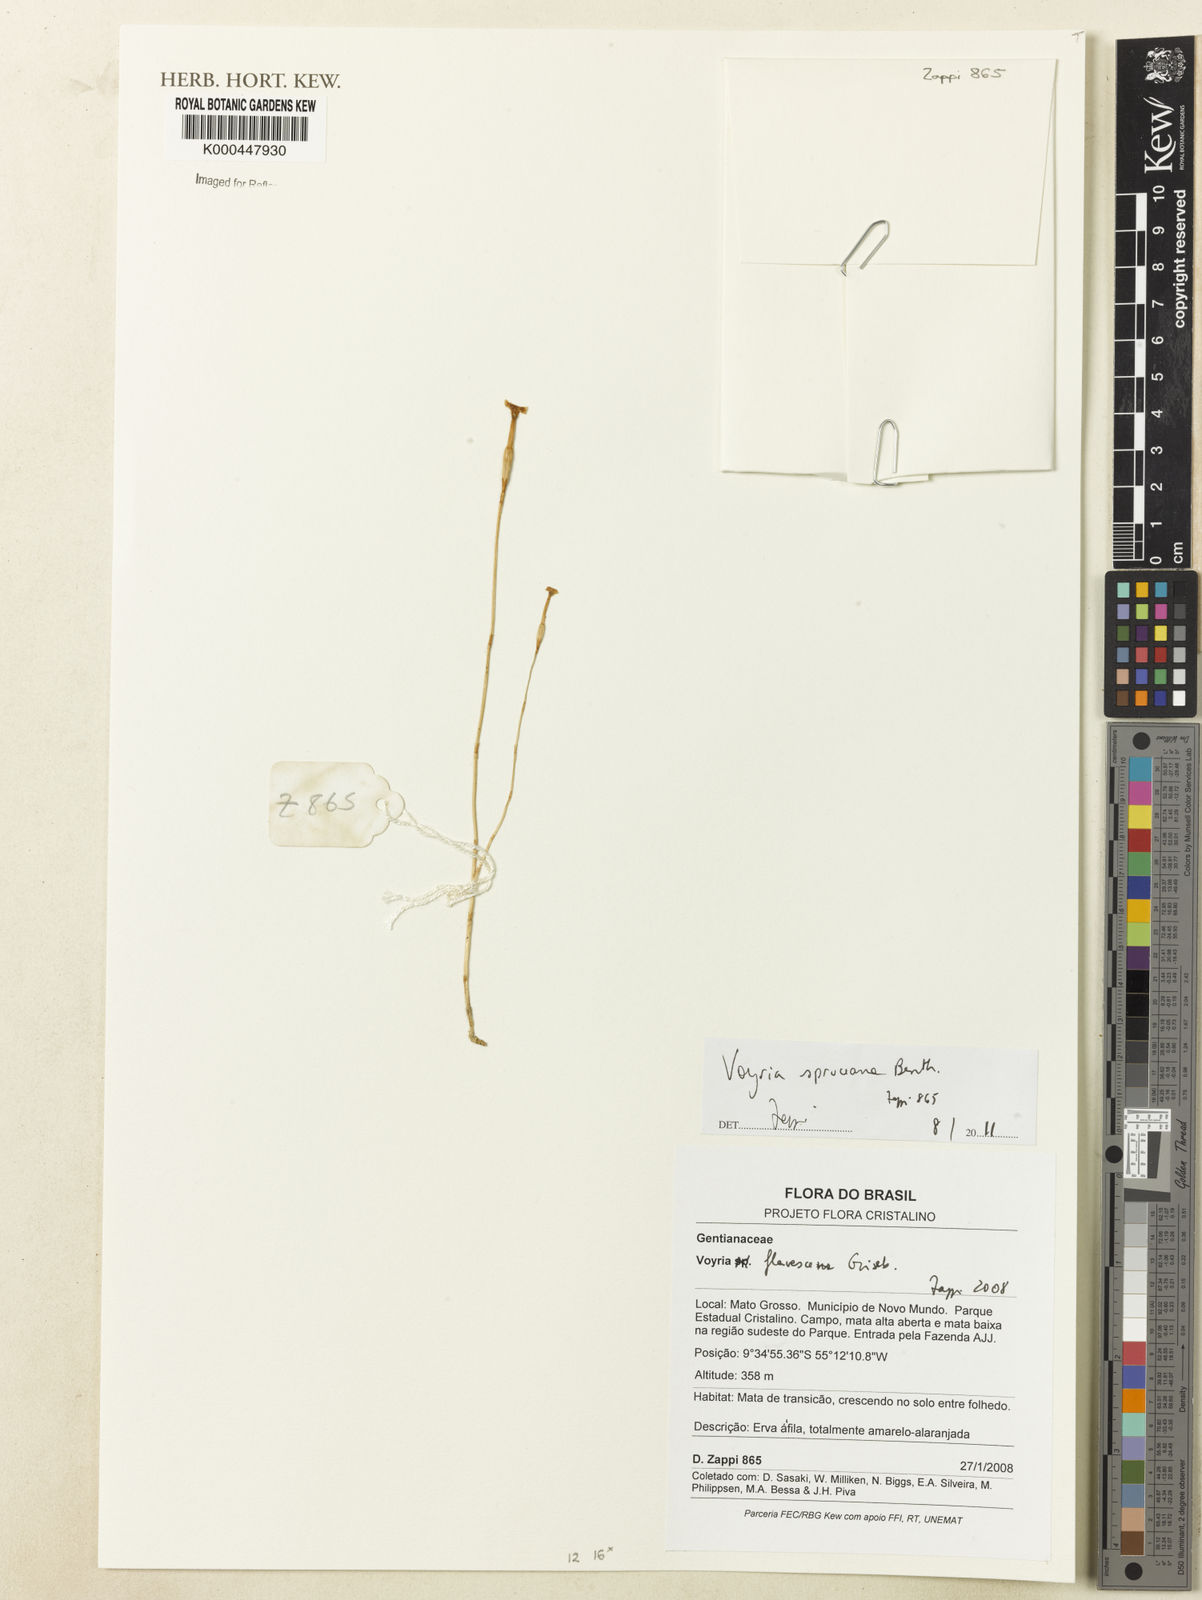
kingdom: Plantae
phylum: Tracheophyta
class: Magnoliopsida
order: Gentianales
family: Gentianaceae
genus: Voyria
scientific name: Voyria spruceana
